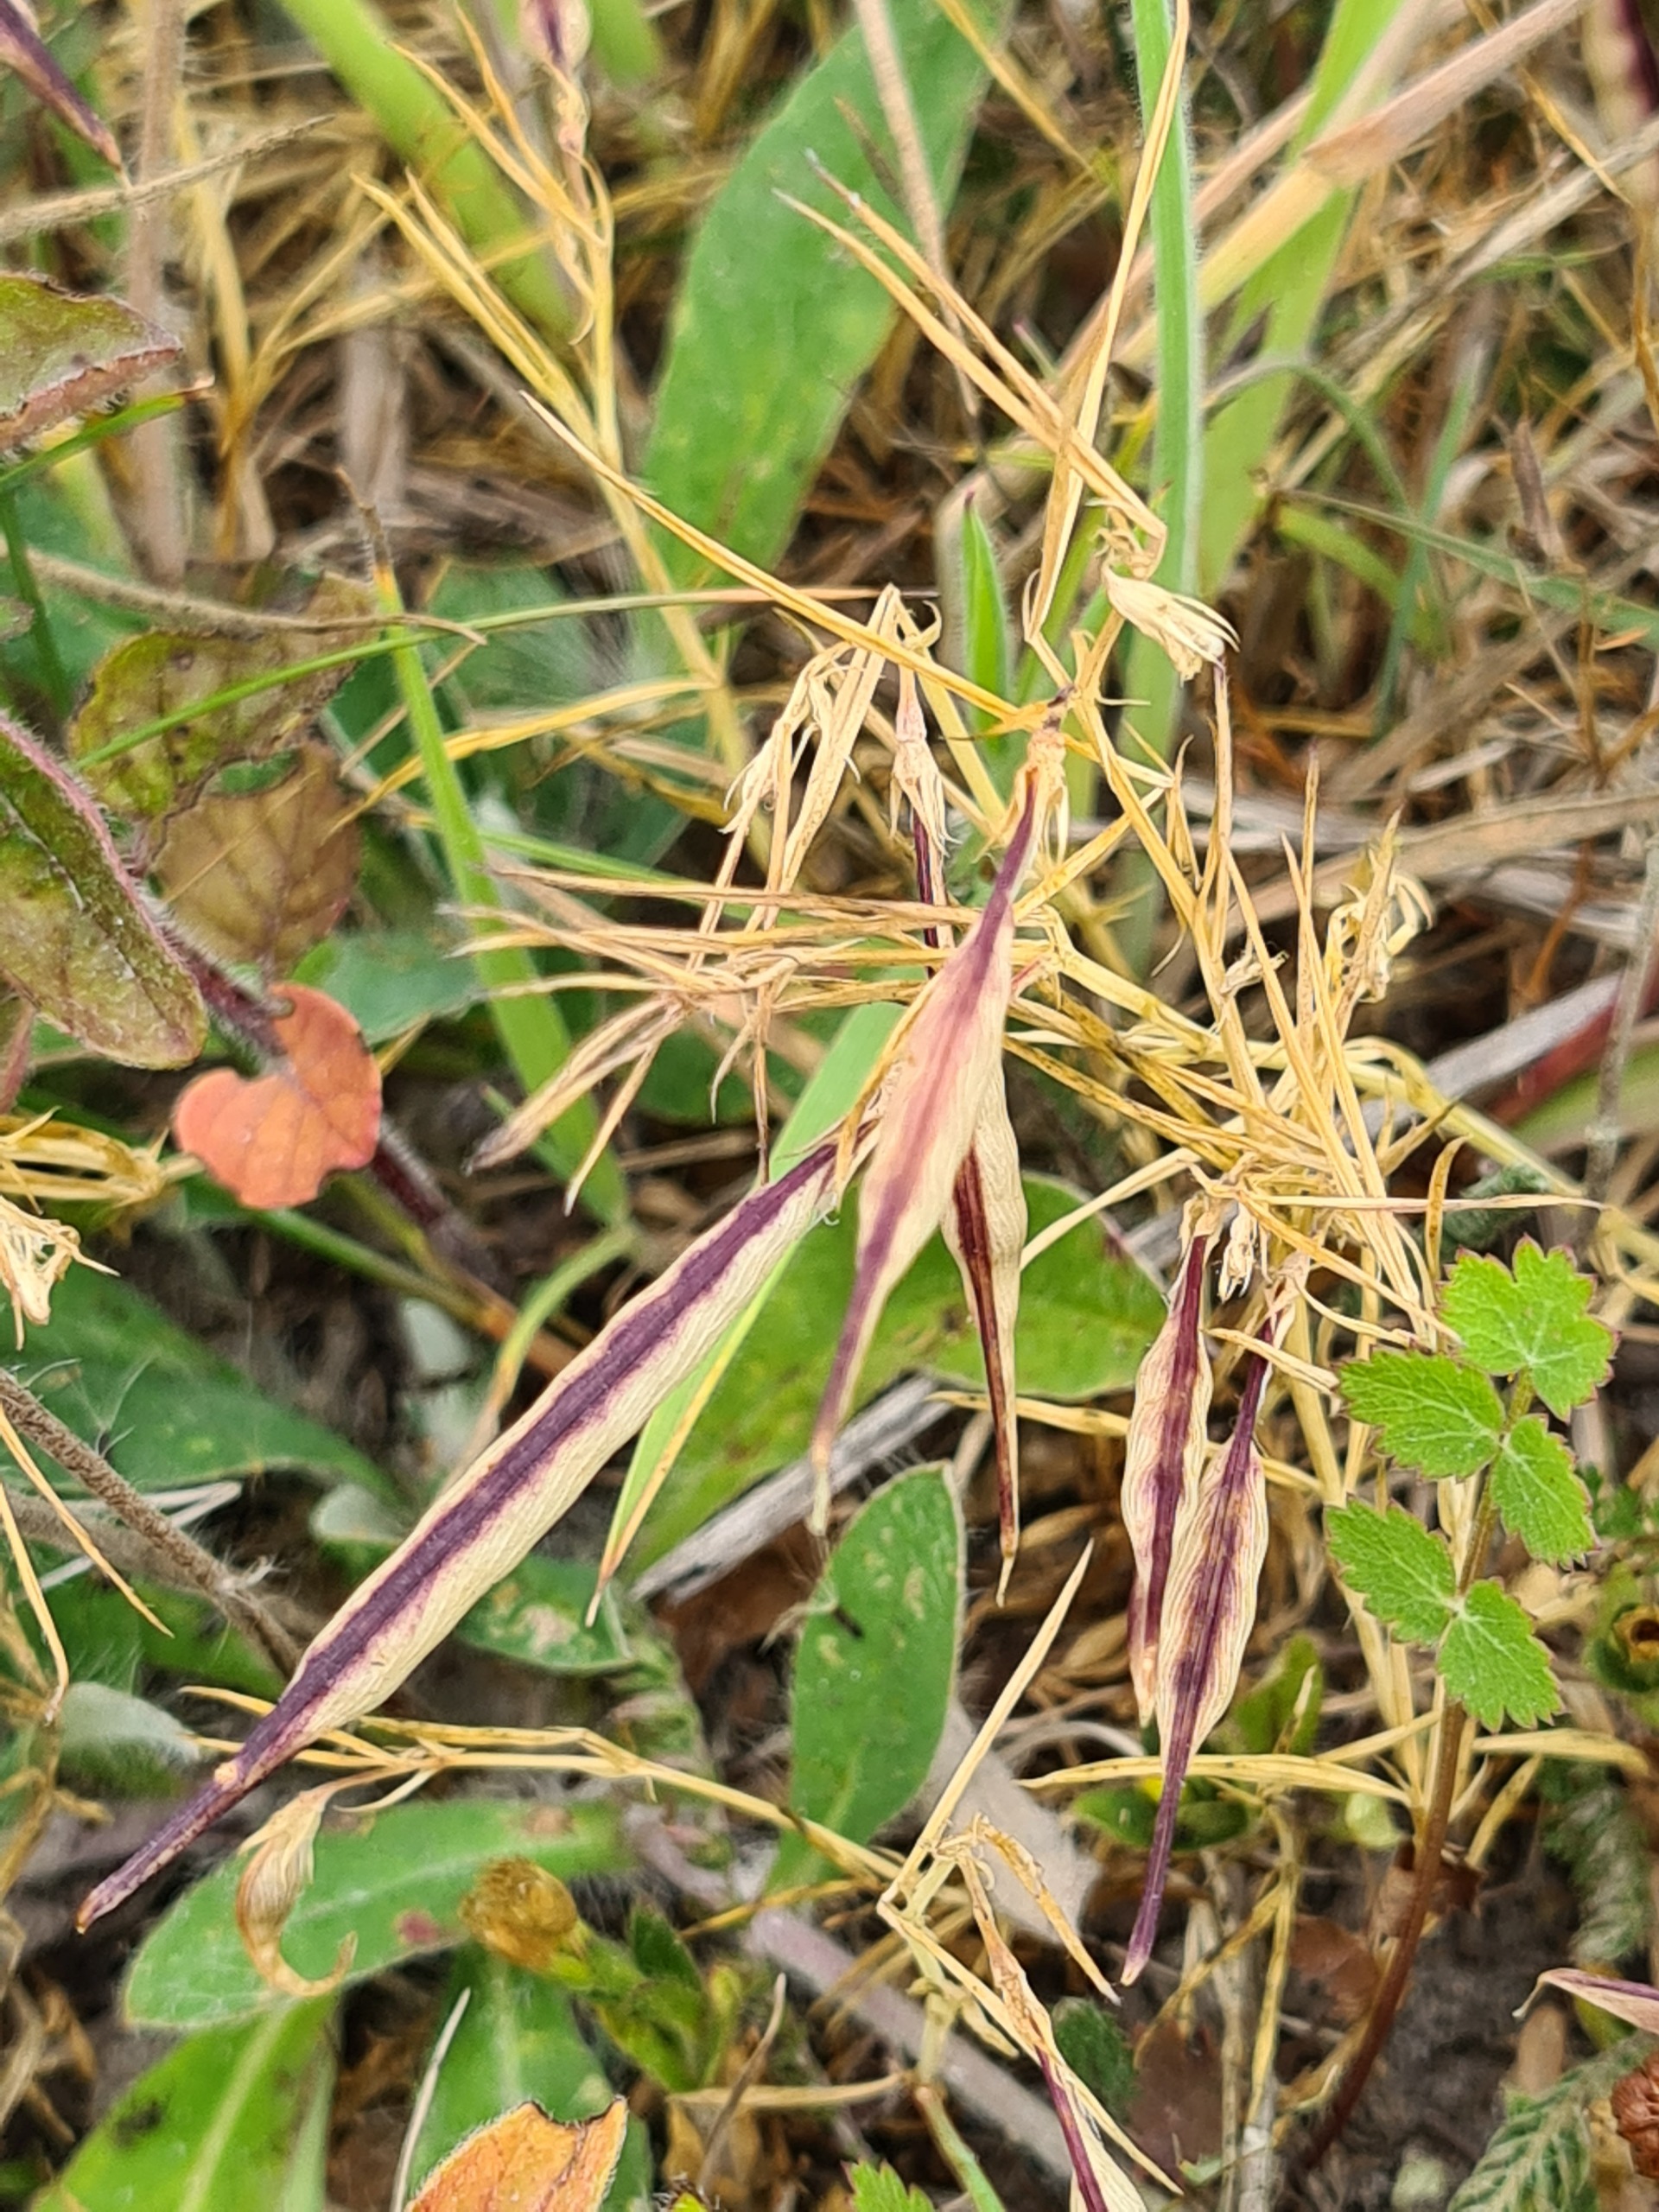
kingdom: Plantae
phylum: Tracheophyta
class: Magnoliopsida
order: Fabales
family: Fabaceae
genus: Lathyrus
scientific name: Lathyrus sphaericus
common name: Enblomstret fladbælg
